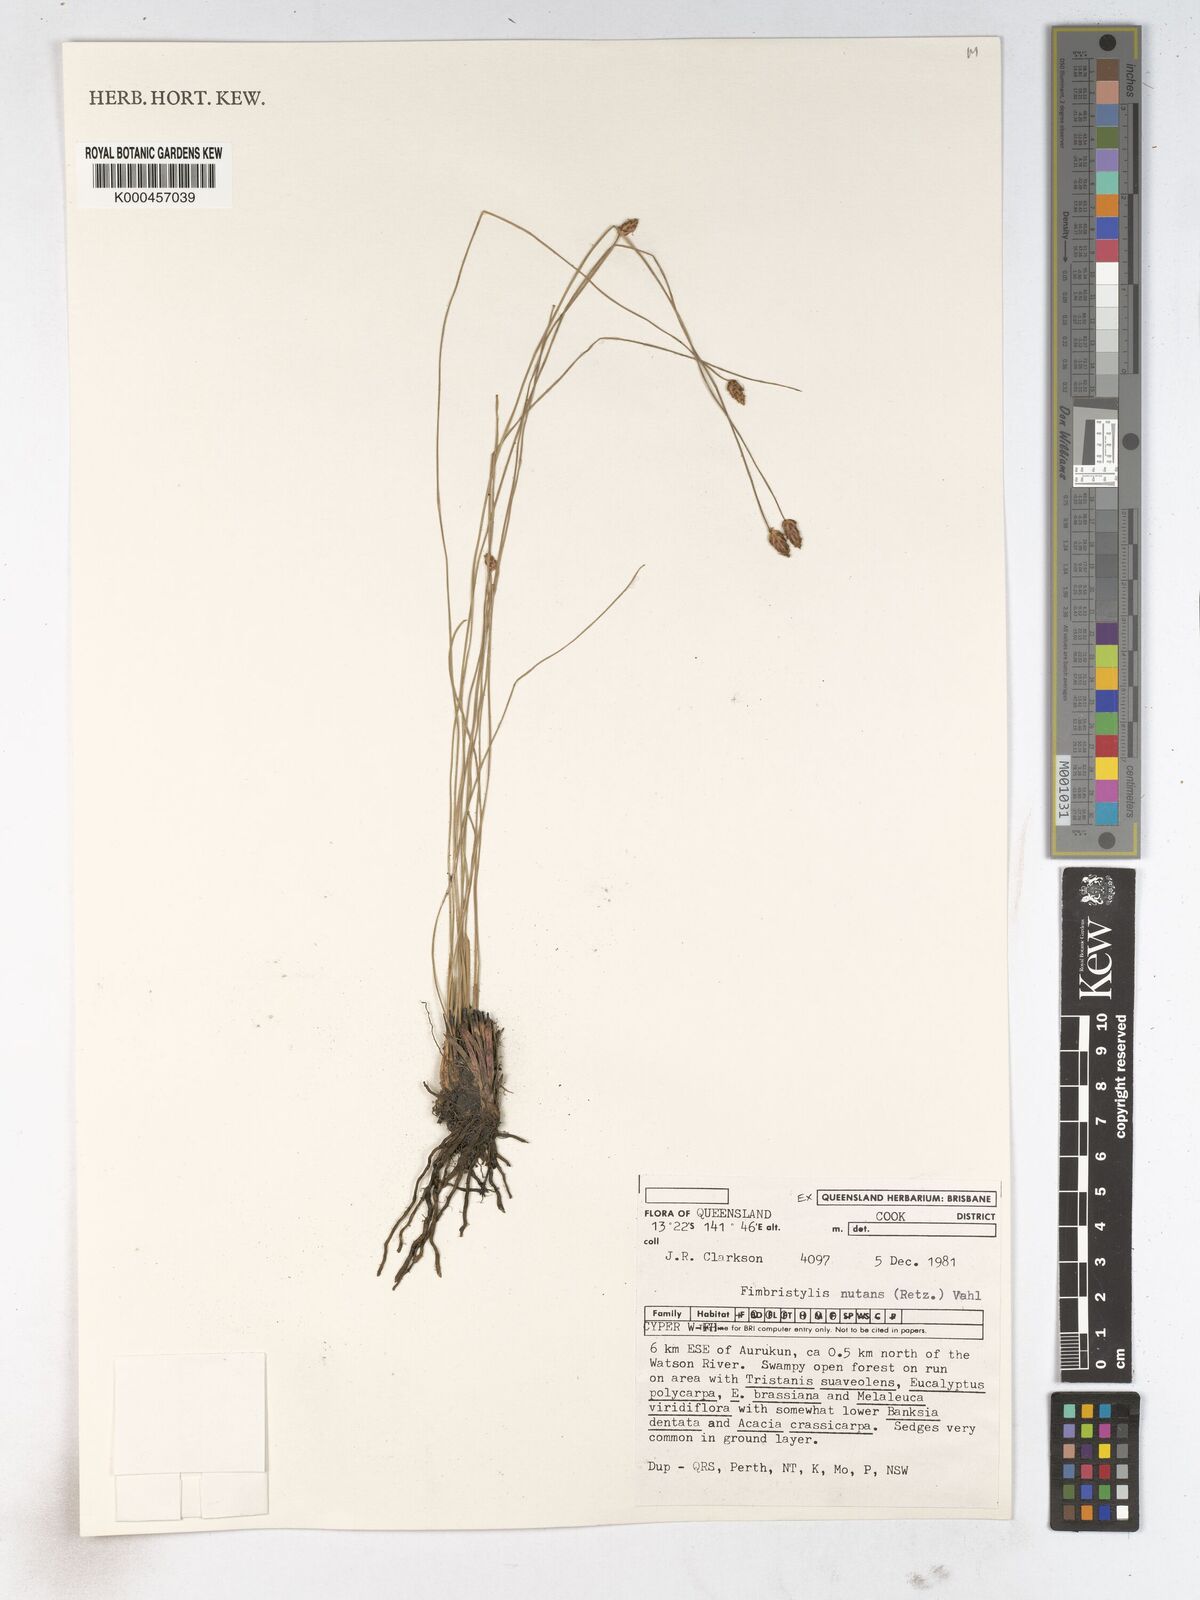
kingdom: Plantae
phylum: Tracheophyta
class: Liliopsida
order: Poales
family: Cyperaceae
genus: Fimbristylis
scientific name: Fimbristylis nutans
